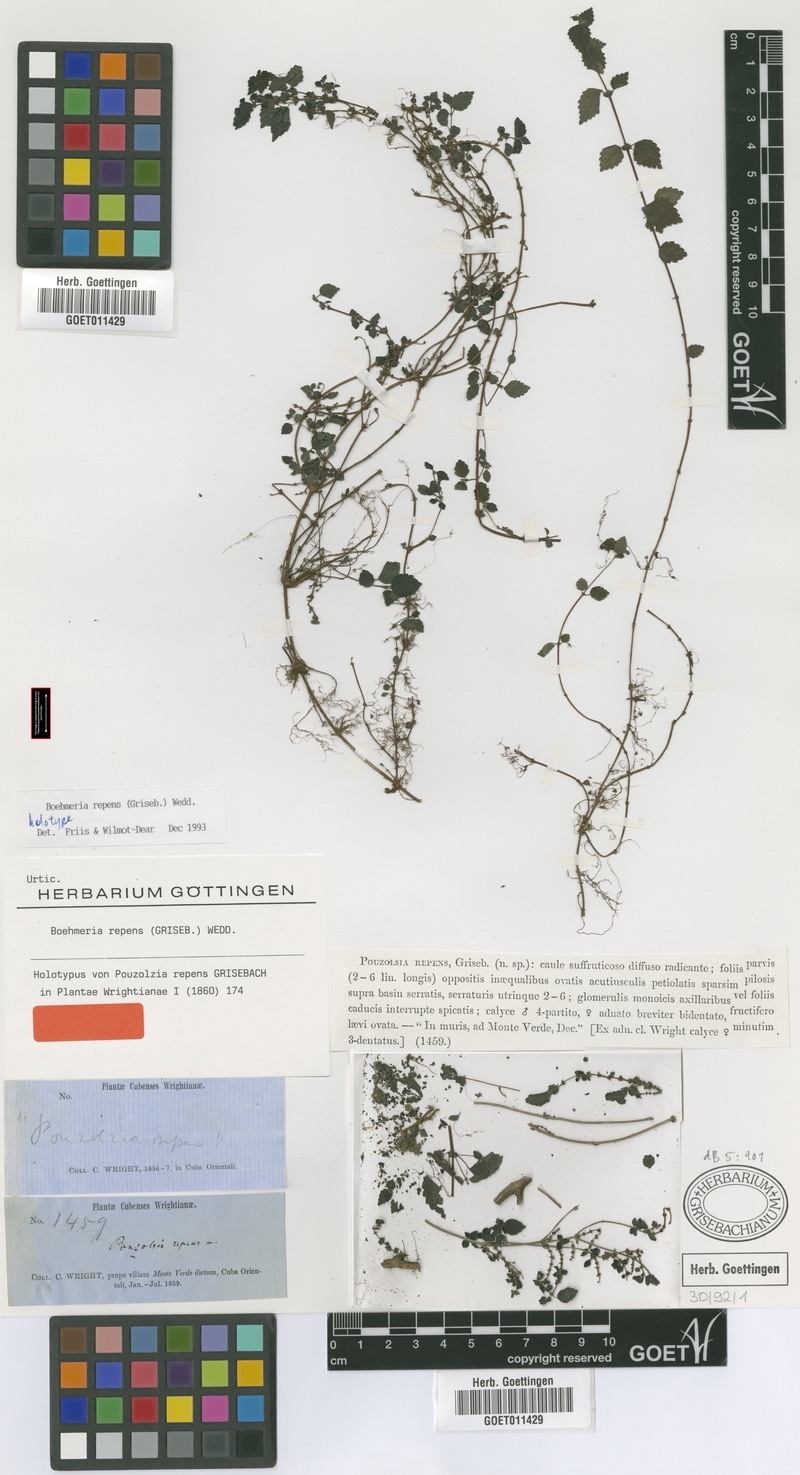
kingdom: Plantae
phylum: Tracheophyta
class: Magnoliopsida
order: Rosales
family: Urticaceae
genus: Boehmeria
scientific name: Boehmeria repens
